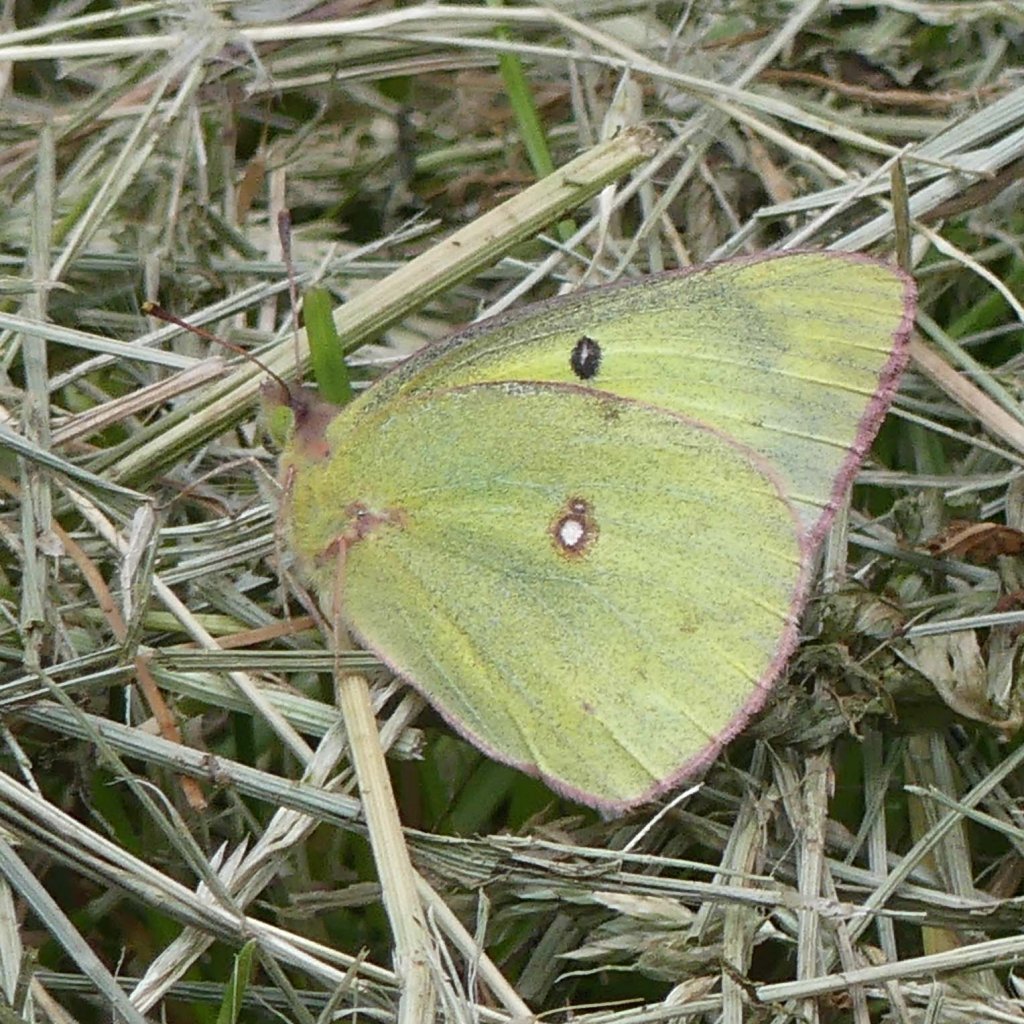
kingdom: Animalia
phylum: Arthropoda
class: Insecta
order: Lepidoptera
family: Pieridae
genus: Colias
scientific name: Colias philodice
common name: Clouded Sulphur
